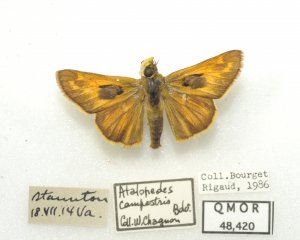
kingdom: Animalia
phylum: Arthropoda
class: Insecta
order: Lepidoptera
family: Hesperiidae
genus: Atalopedes
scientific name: Atalopedes campestris
